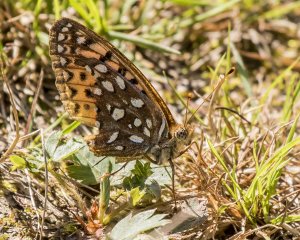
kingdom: Animalia
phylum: Arthropoda
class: Insecta
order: Lepidoptera
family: Nymphalidae
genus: Speyeria
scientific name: Speyeria atlantis
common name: Atlantis Fritillary
